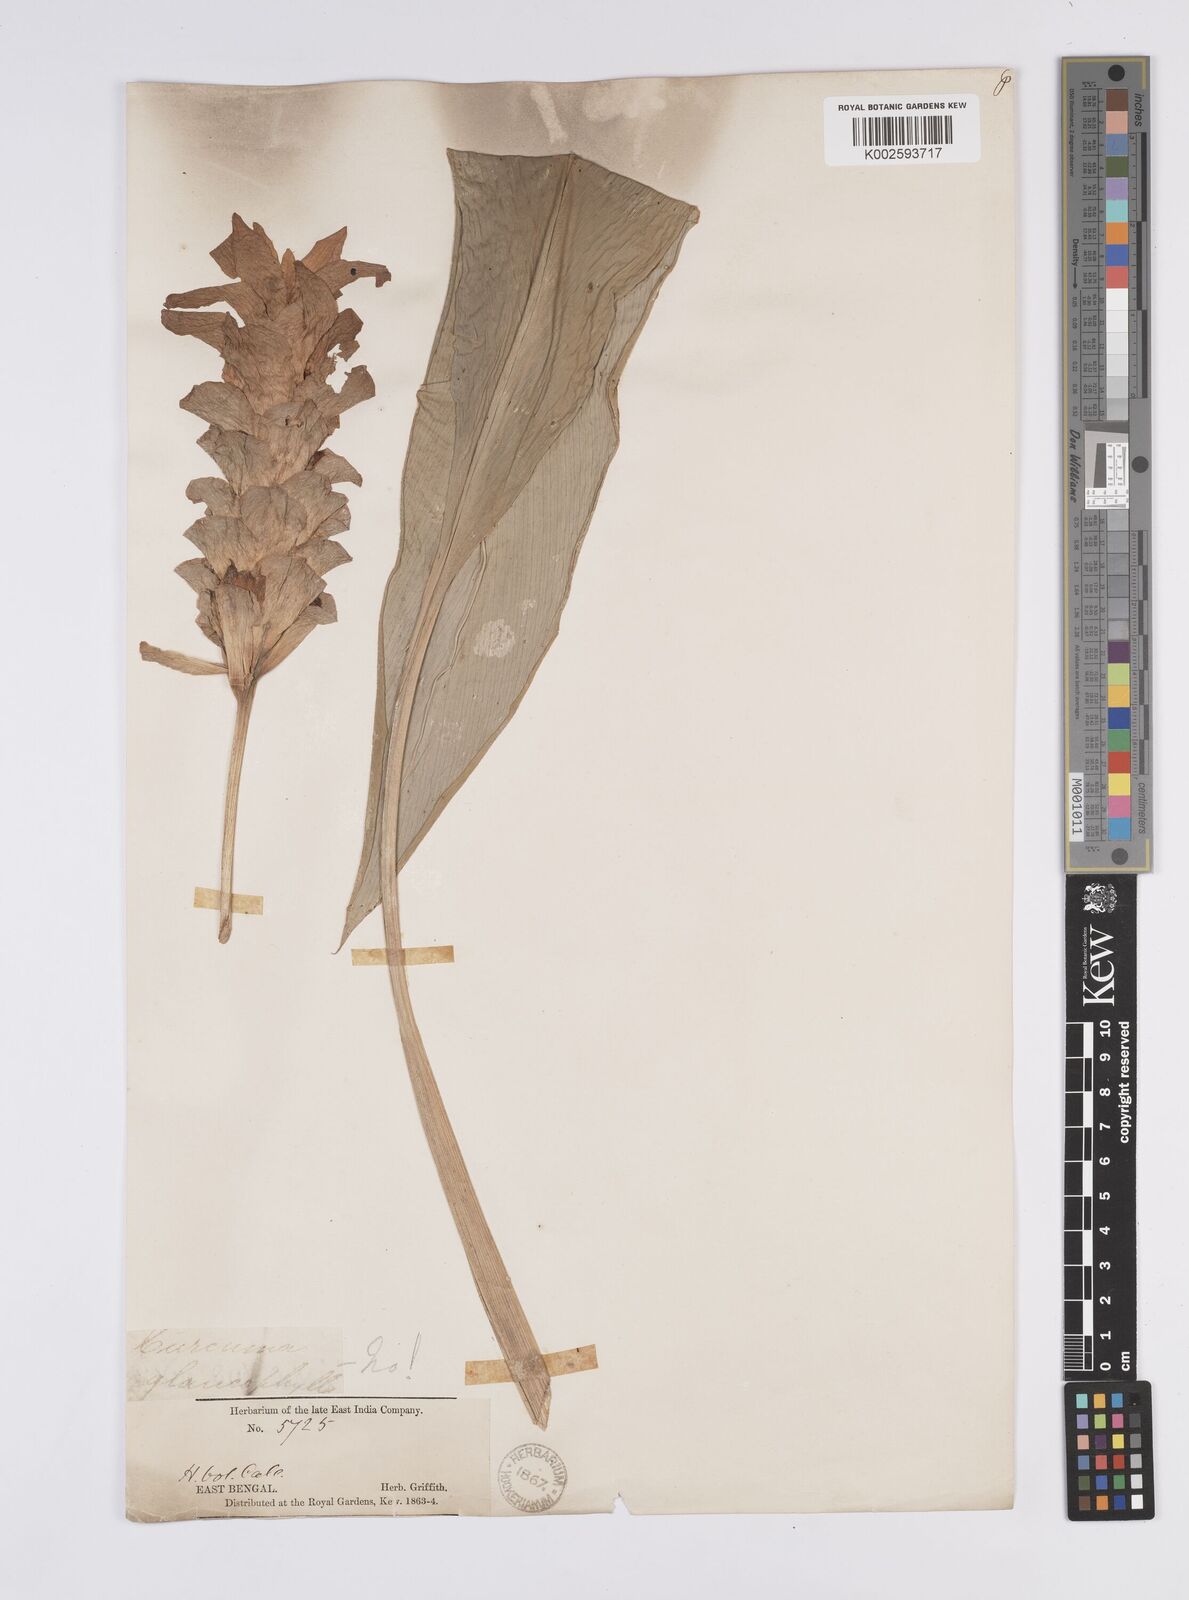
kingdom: Plantae
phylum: Tracheophyta
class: Liliopsida
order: Zingiberales
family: Zingiberaceae
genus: Curcuma
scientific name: Curcuma glauca
